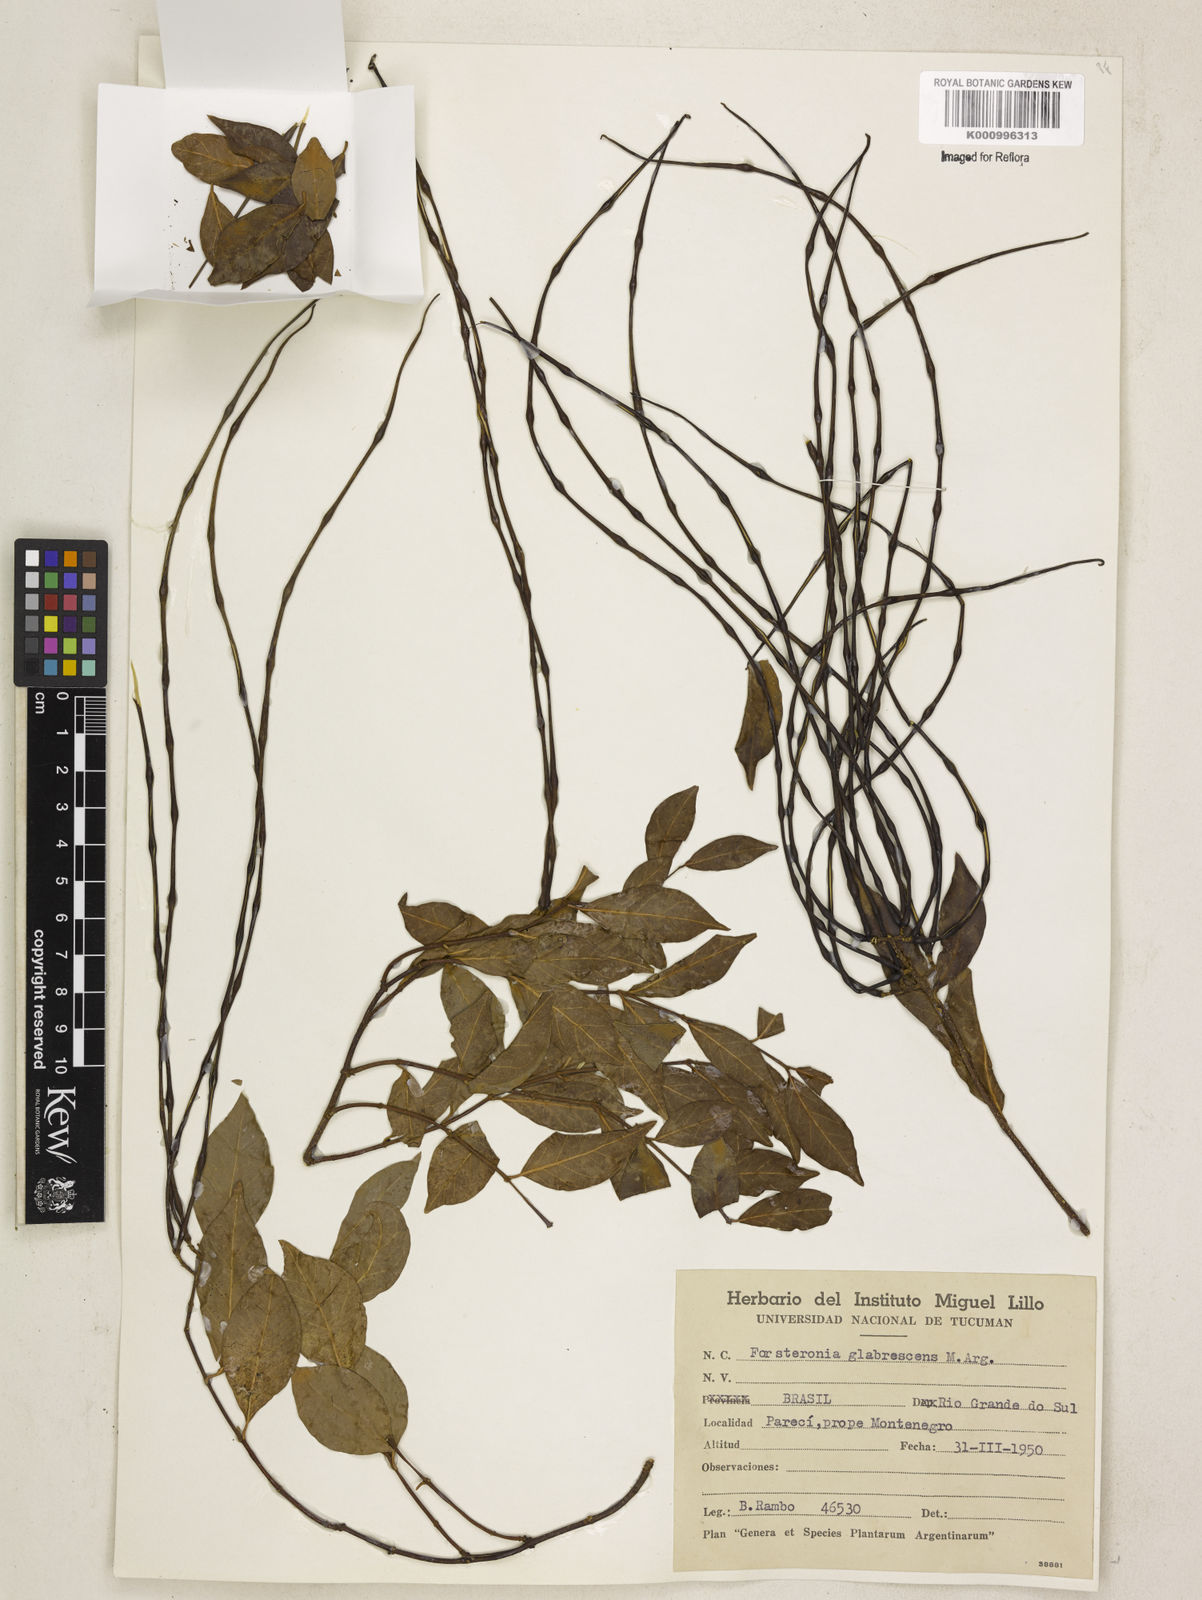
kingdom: Plantae
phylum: Tracheophyta
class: Magnoliopsida
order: Gentianales
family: Apocynaceae
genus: Forsteronia
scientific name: Forsteronia
